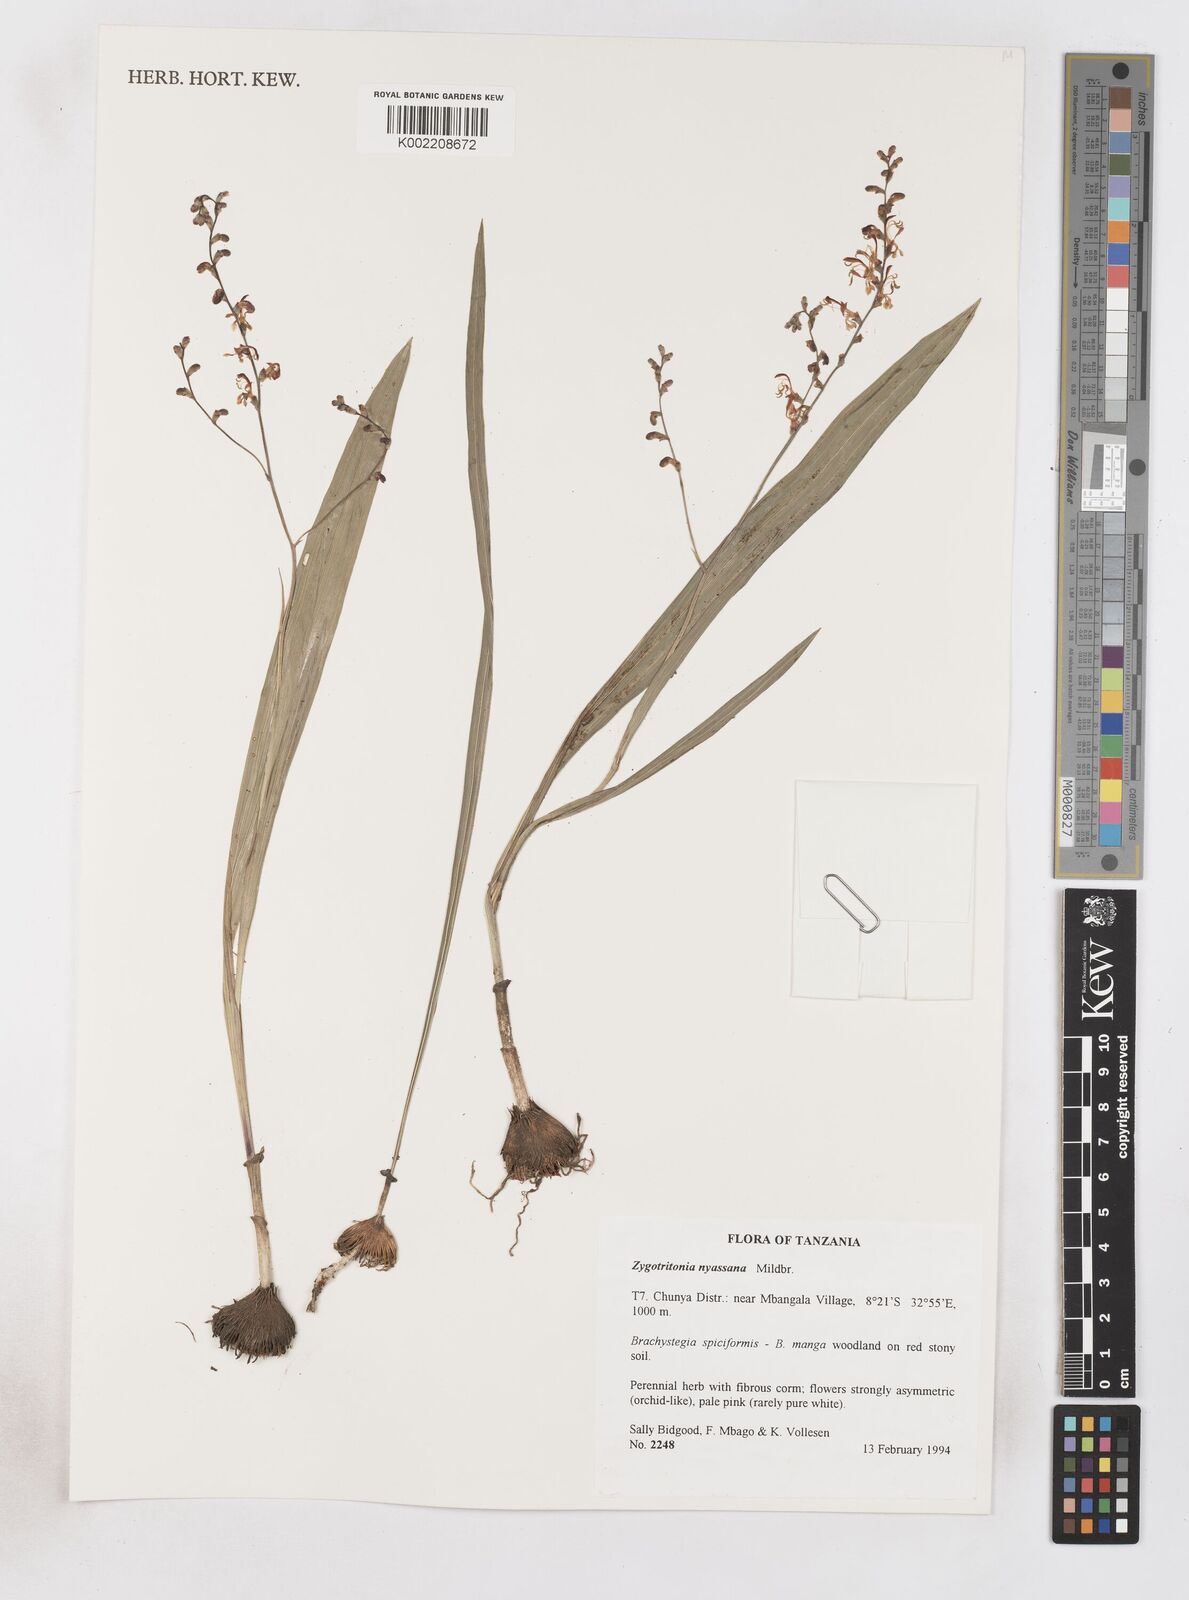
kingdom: Plantae
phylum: Tracheophyta
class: Liliopsida
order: Asparagales
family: Iridaceae
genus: Zygotritonia
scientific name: Zygotritonia nyassana
